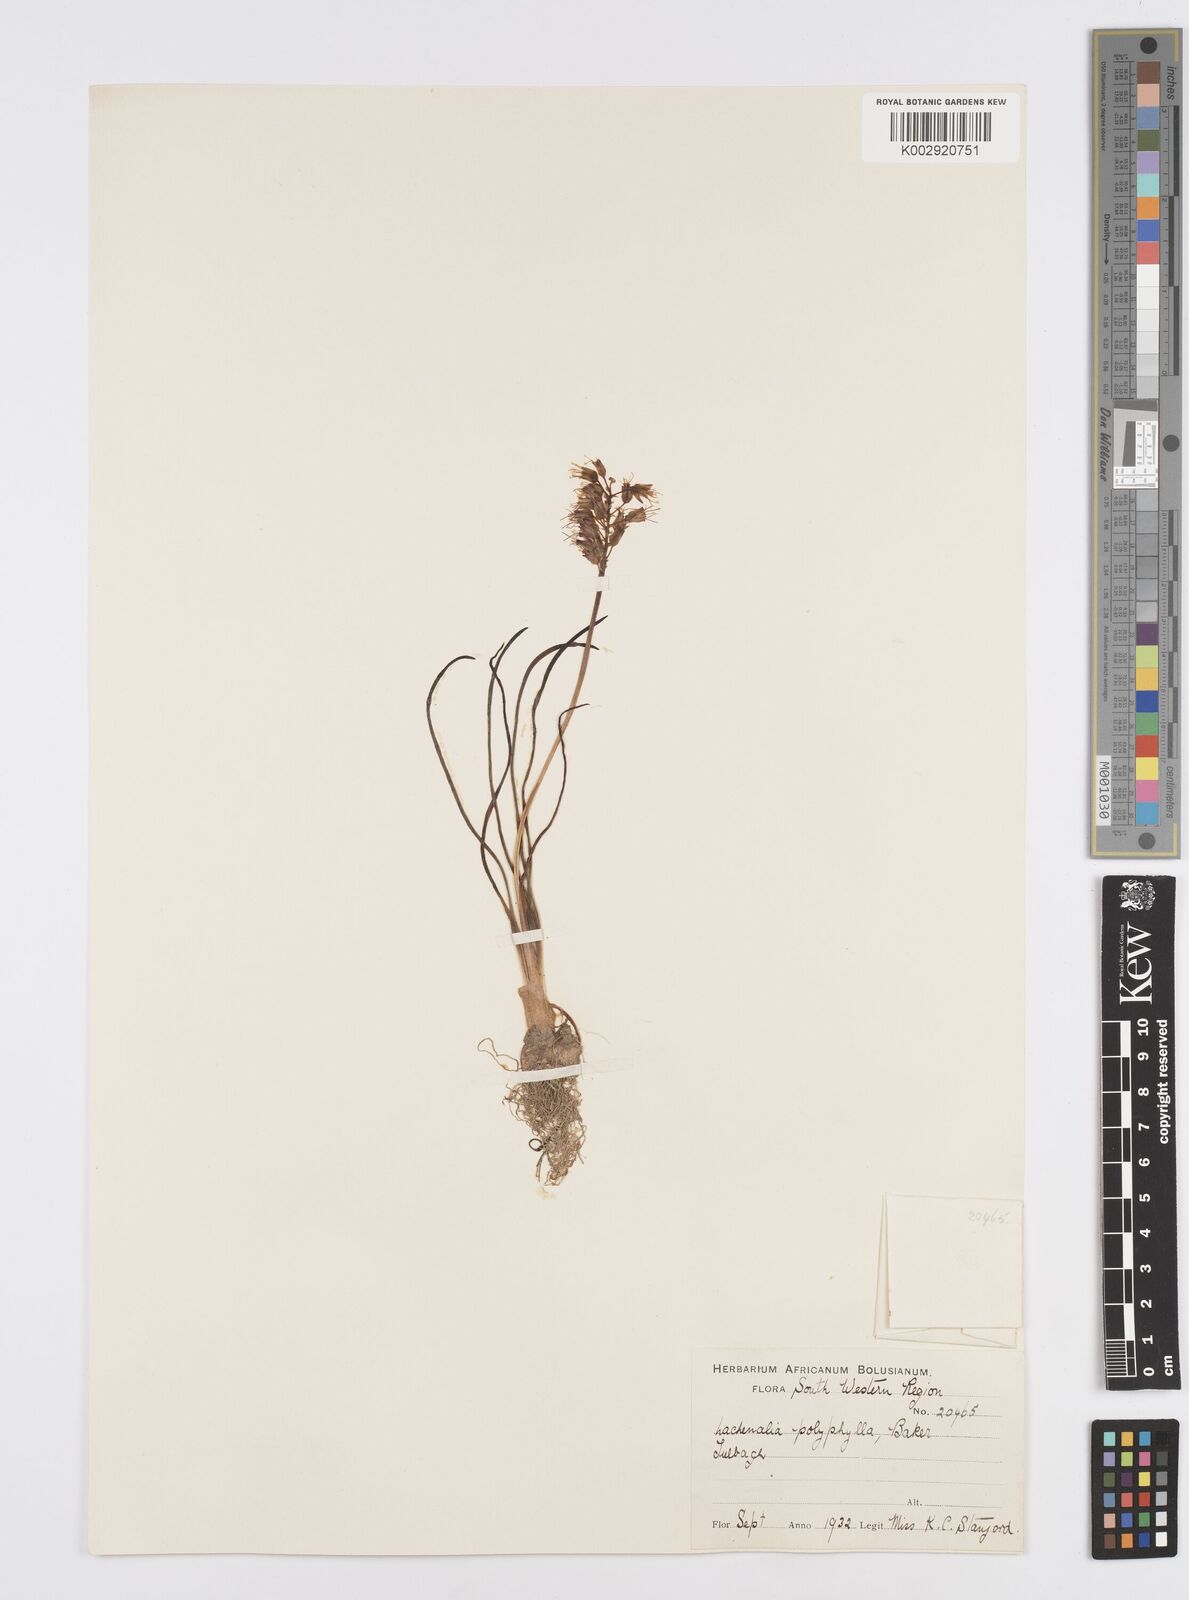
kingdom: Plantae
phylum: Tracheophyta
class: Liliopsida
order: Asparagales
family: Asparagaceae
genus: Lachenalia
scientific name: Lachenalia polyphylla
